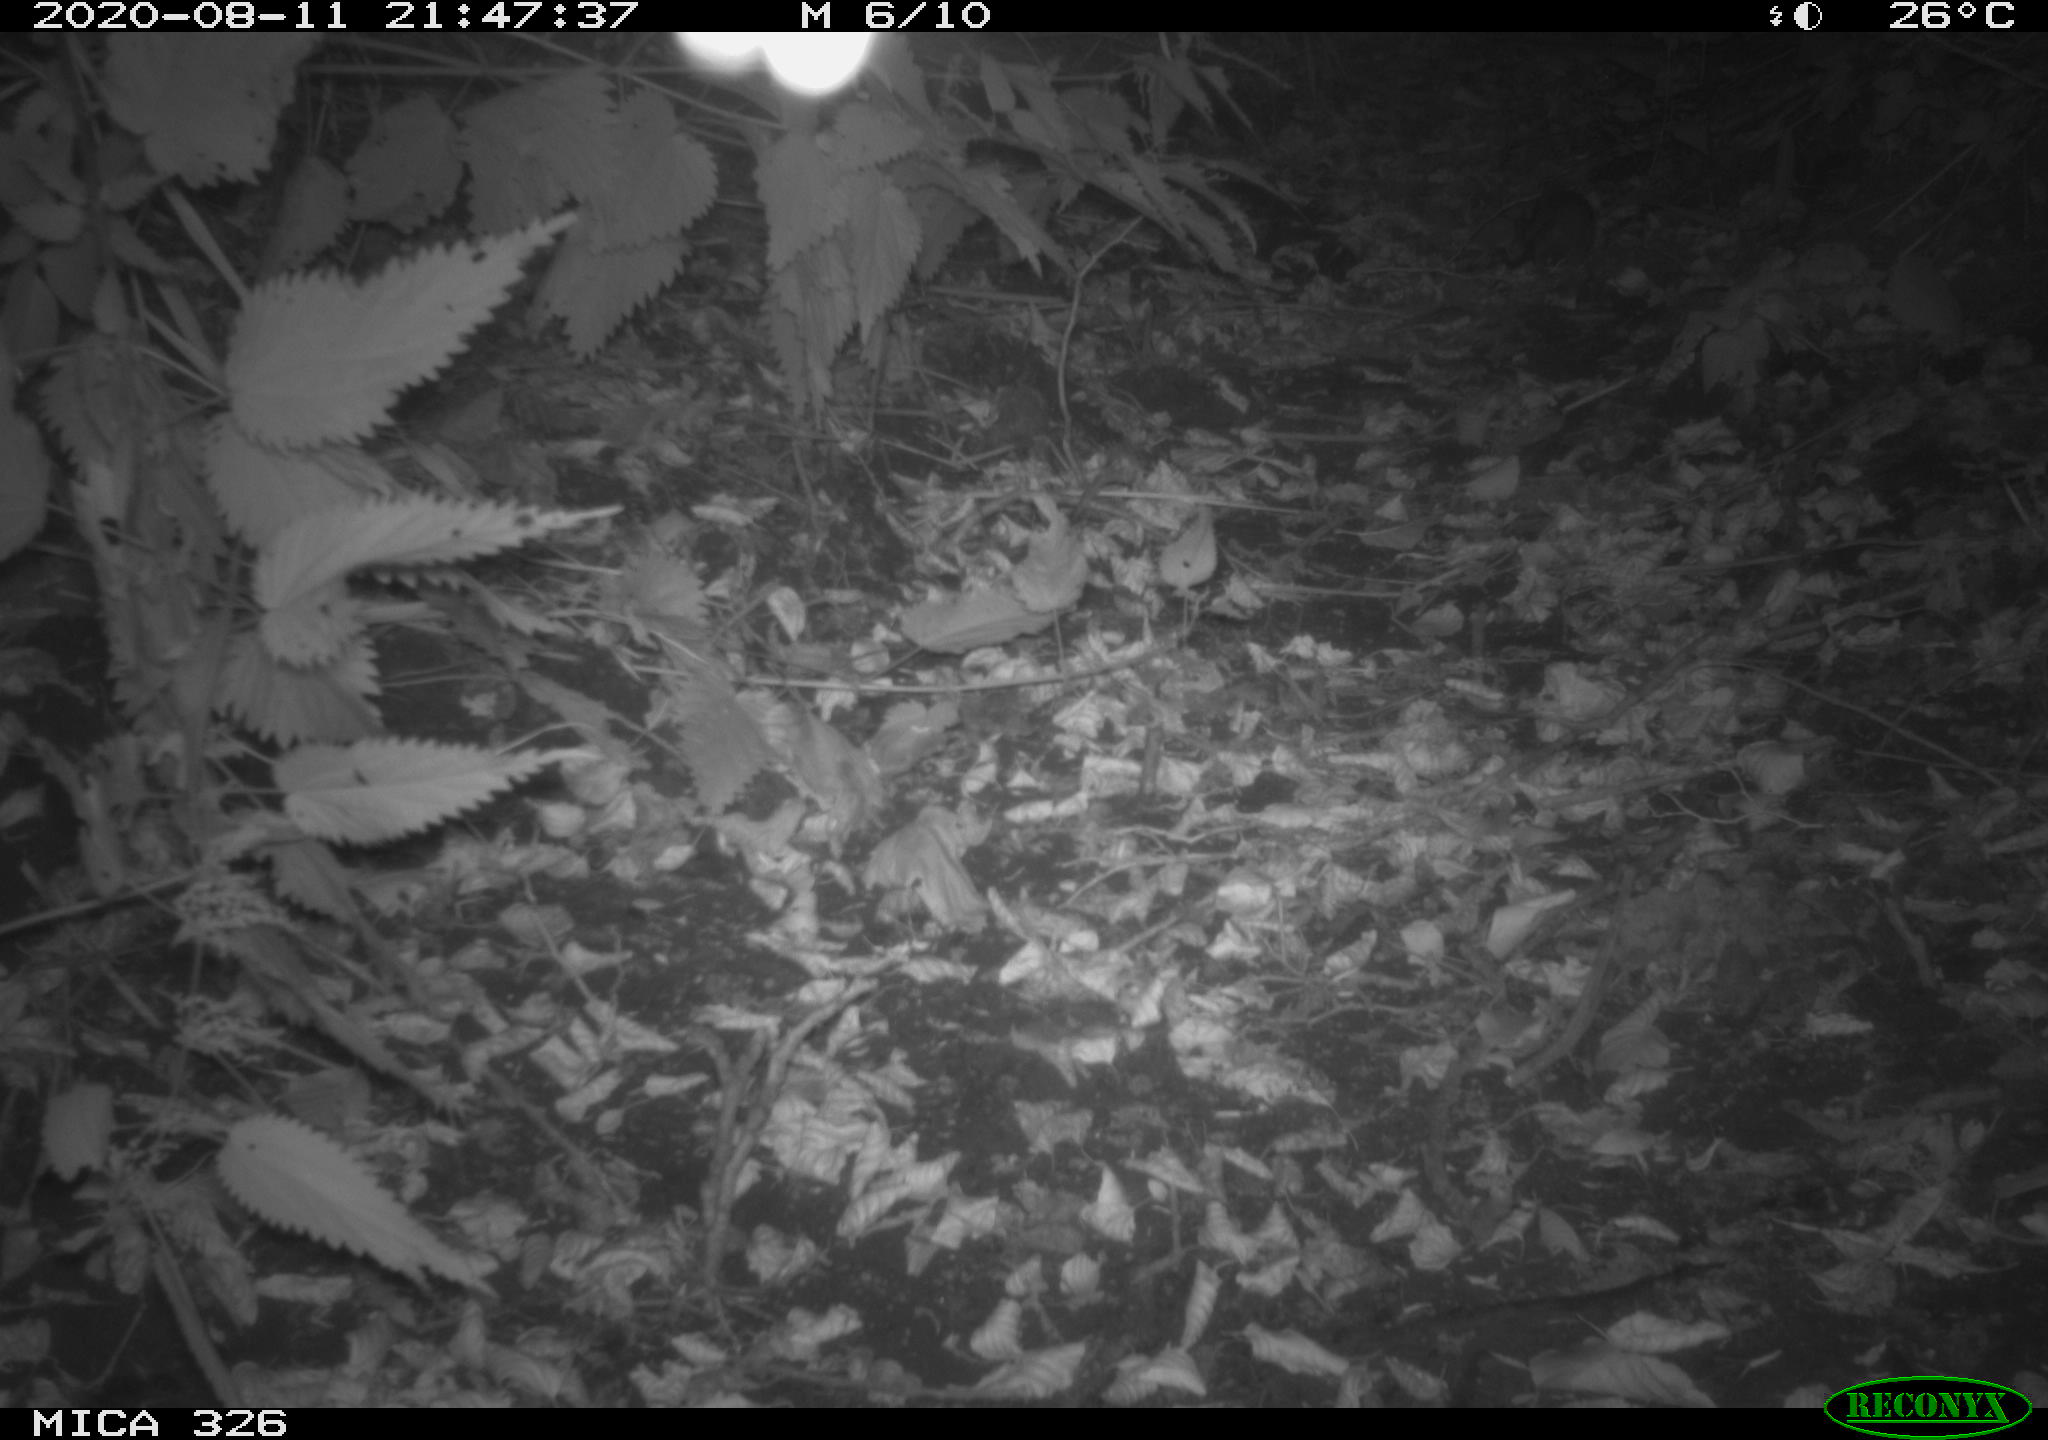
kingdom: Animalia
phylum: Chordata
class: Mammalia
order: Rodentia
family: Muridae
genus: Rattus
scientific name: Rattus norvegicus
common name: Brown rat
